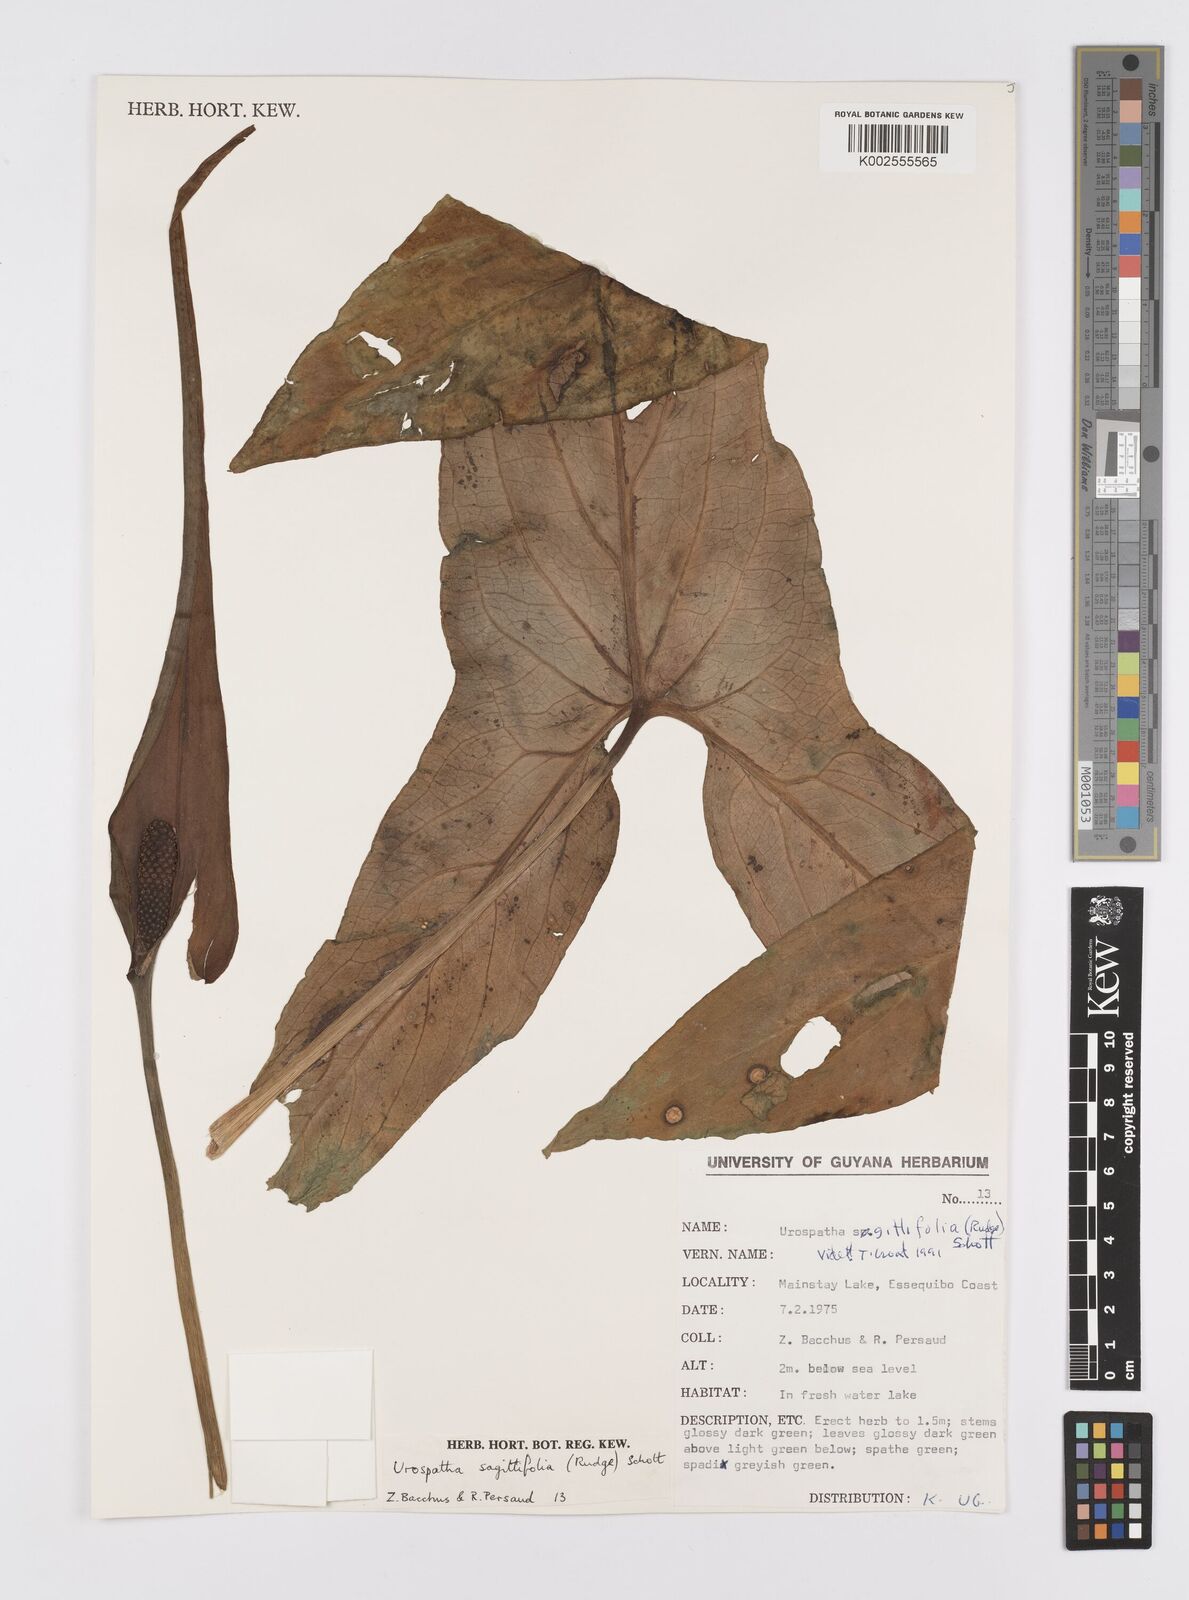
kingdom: Plantae
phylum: Tracheophyta
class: Liliopsida
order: Alismatales
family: Araceae
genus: Urospatha
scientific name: Urospatha sagittifolia
